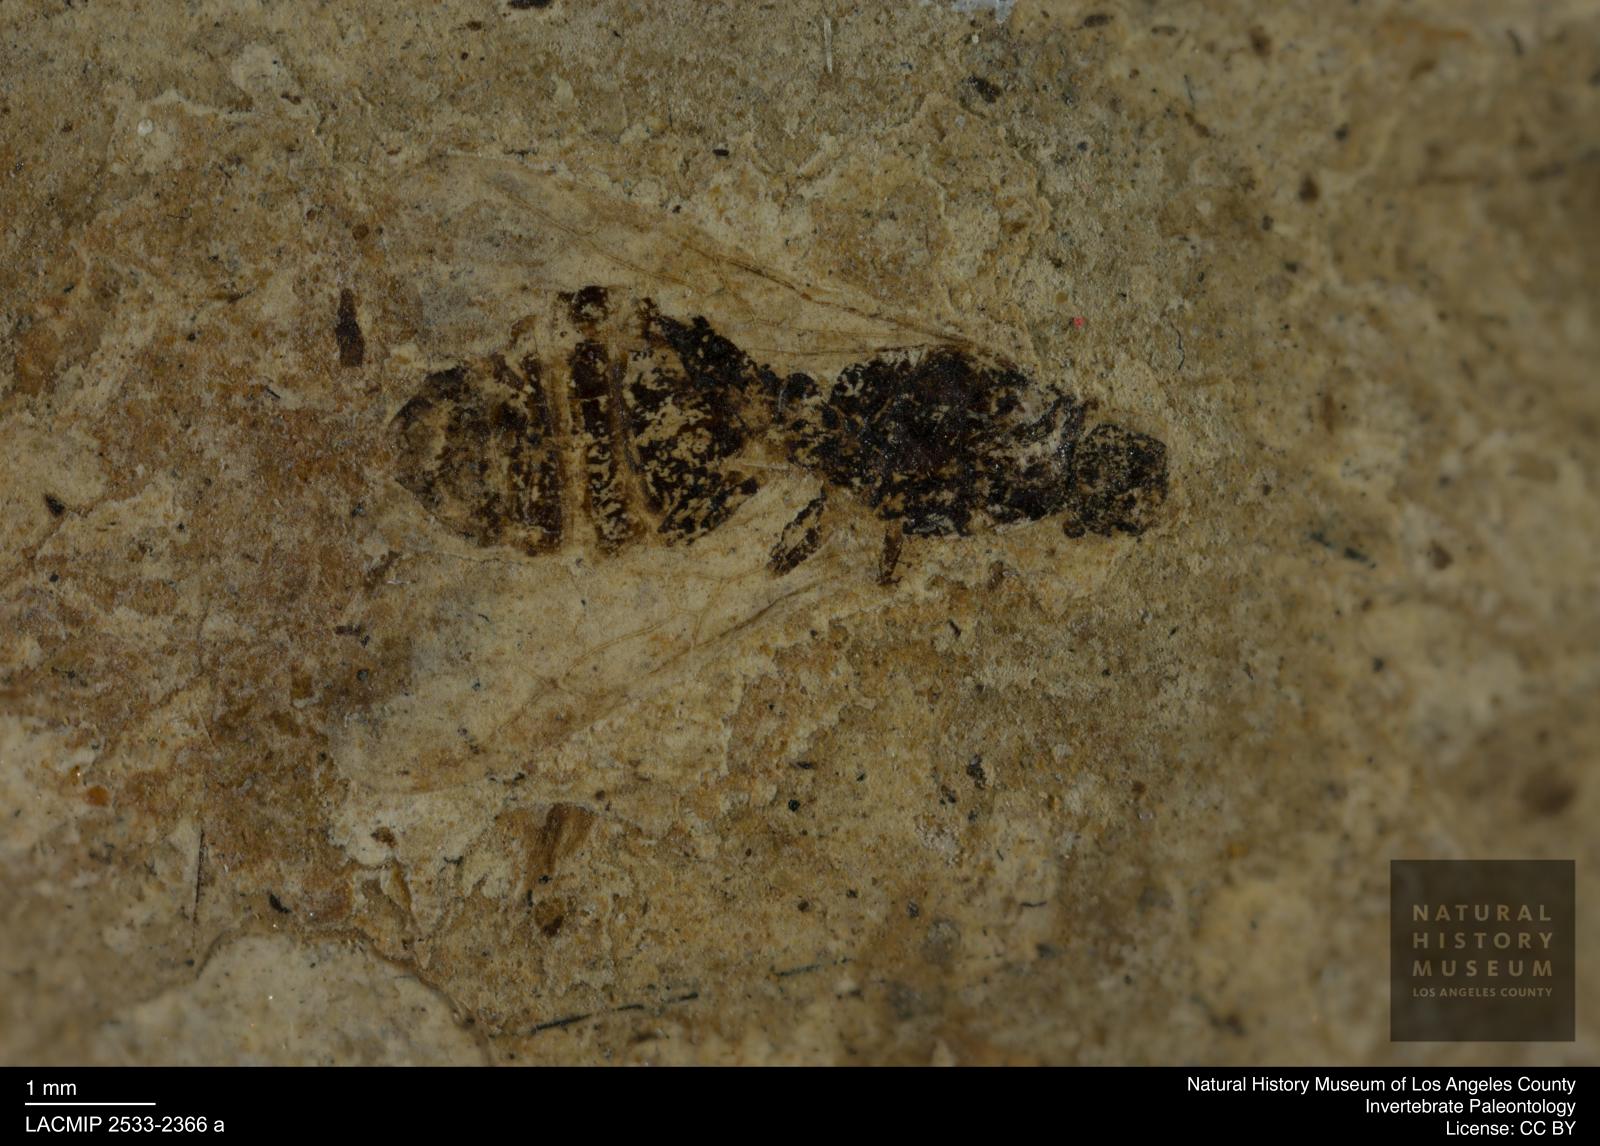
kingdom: Animalia
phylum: Arthropoda
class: Insecta
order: Hymenoptera
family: Formicidae
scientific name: Formicidae
